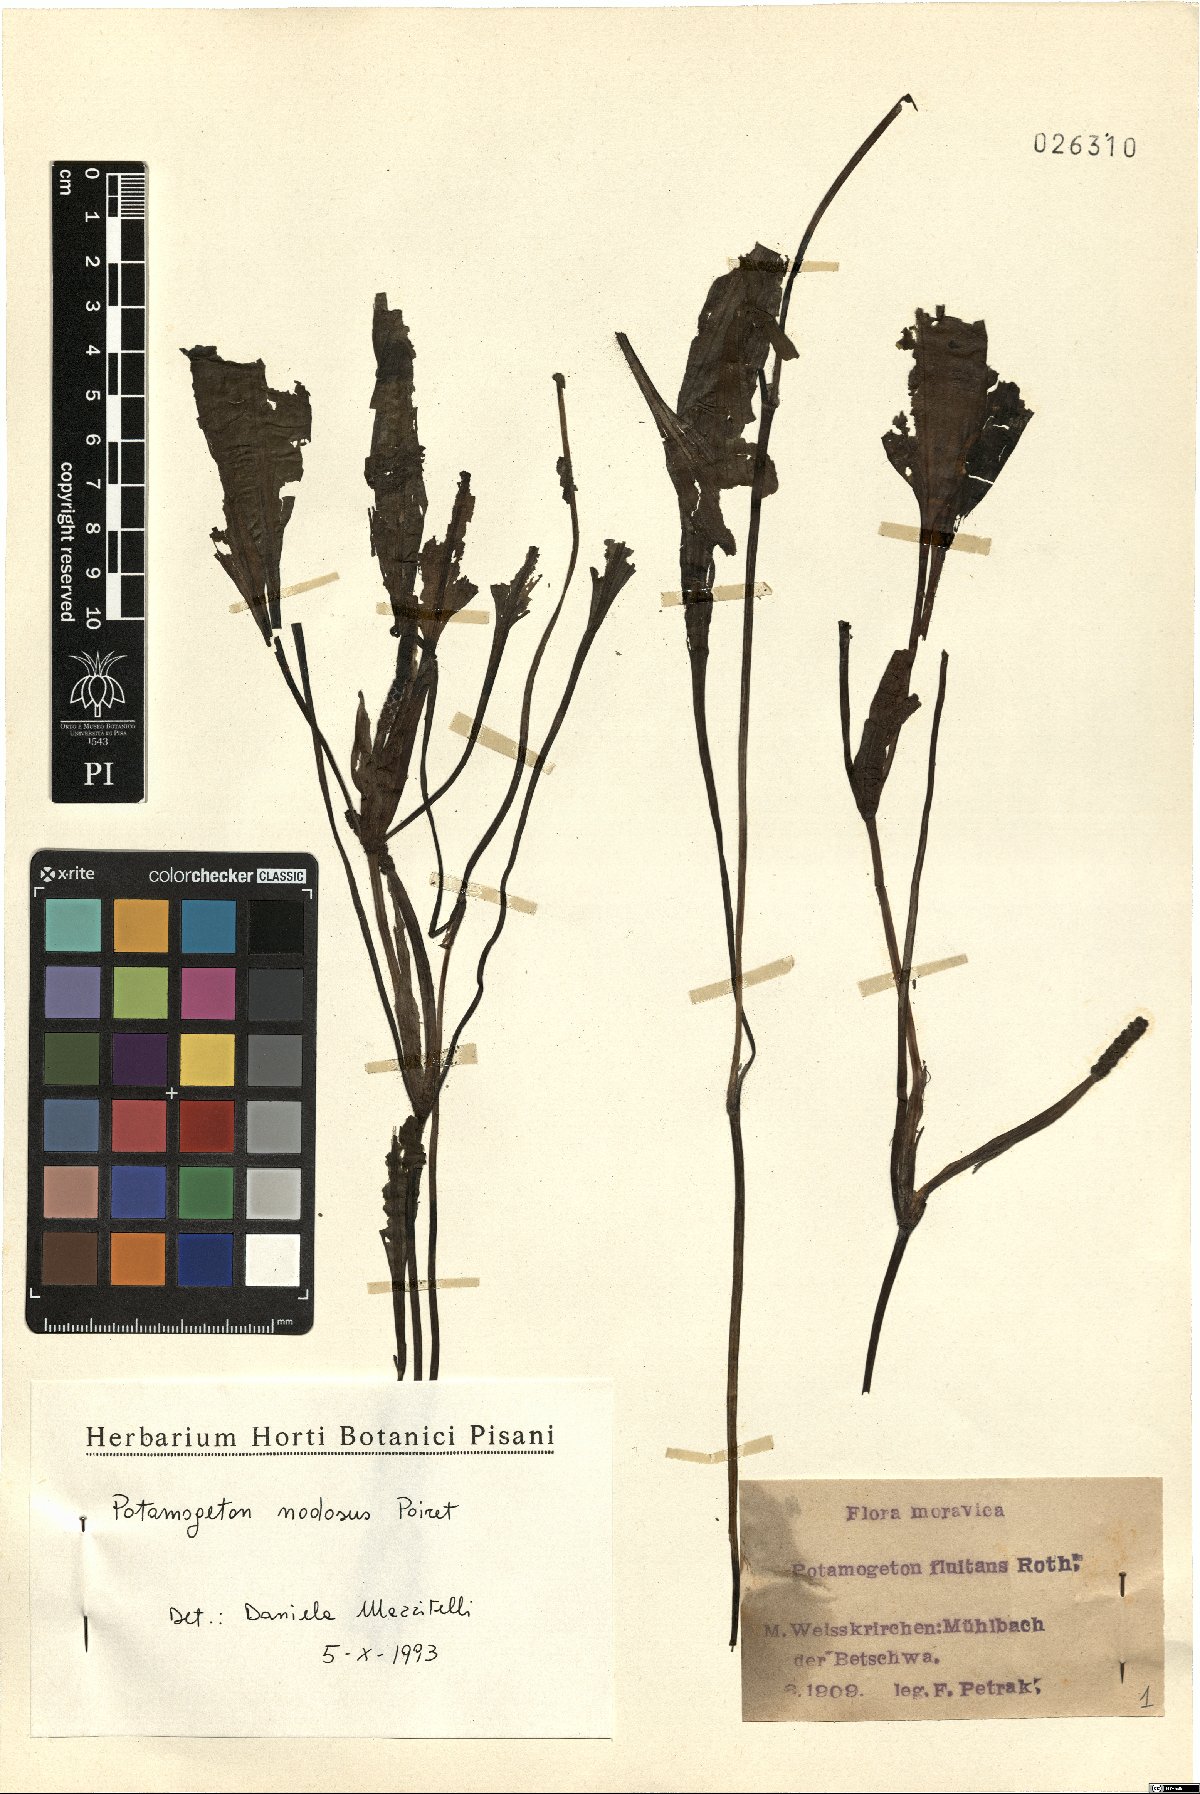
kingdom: Plantae
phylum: Tracheophyta
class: Liliopsida
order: Alismatales
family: Potamogetonaceae
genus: Potamogeton
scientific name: Potamogeton nodosus
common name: Loddon pondweed
